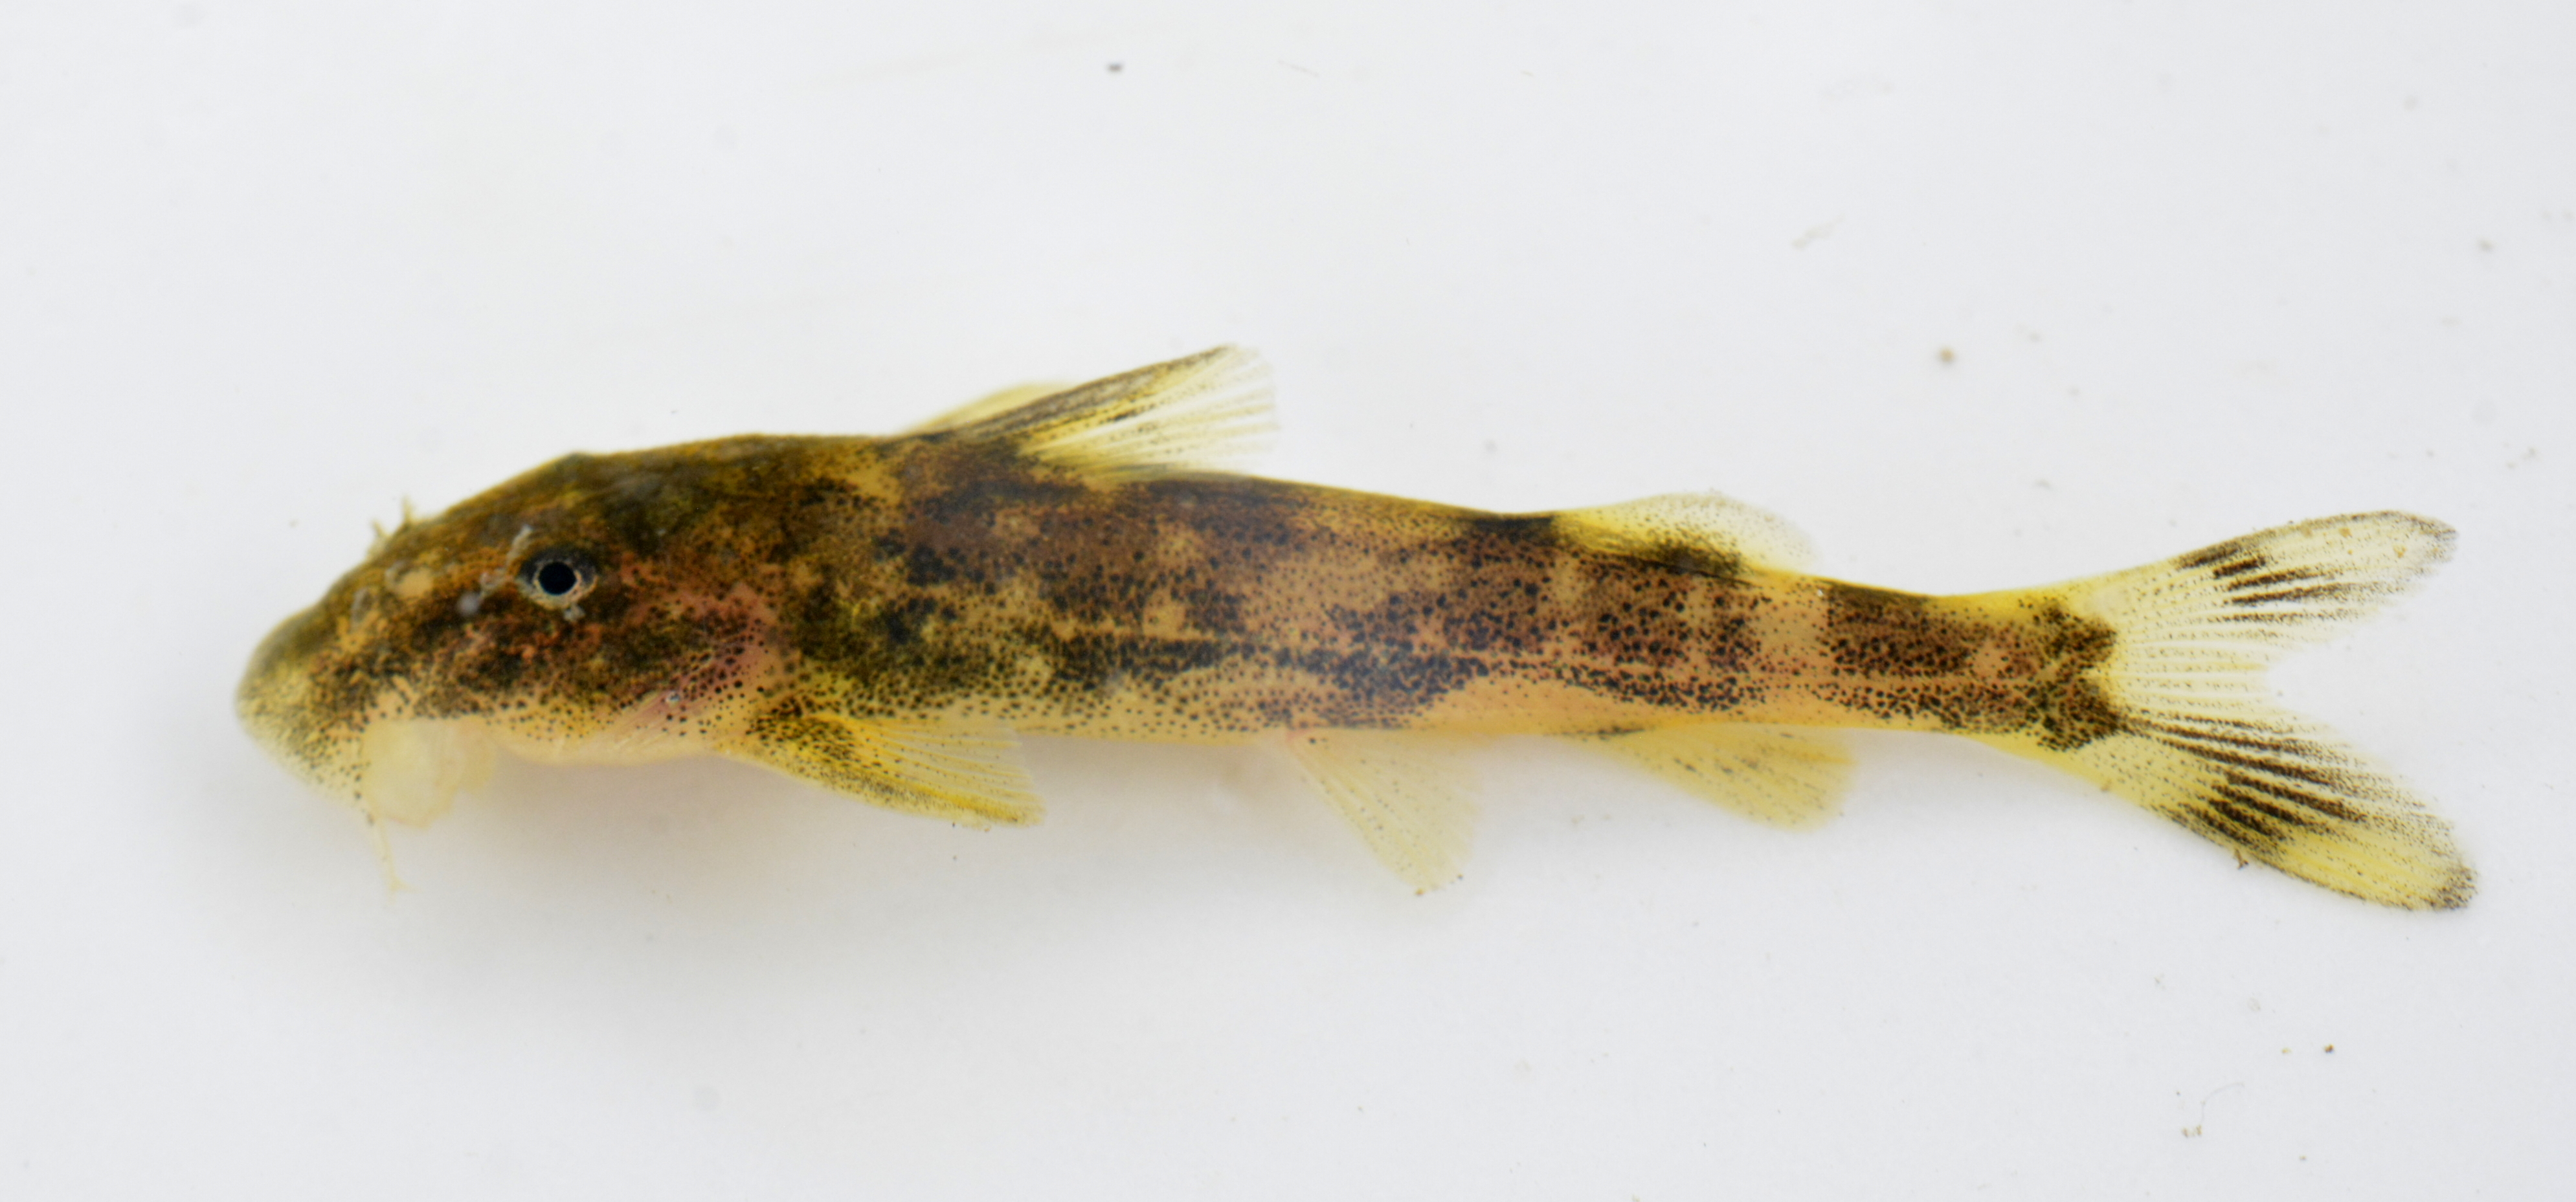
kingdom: Animalia
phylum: Chordata
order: Siluriformes
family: Mochokidae
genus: Chiloglanis
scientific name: Chiloglanis fasciatus
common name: Okavango suckermouth
